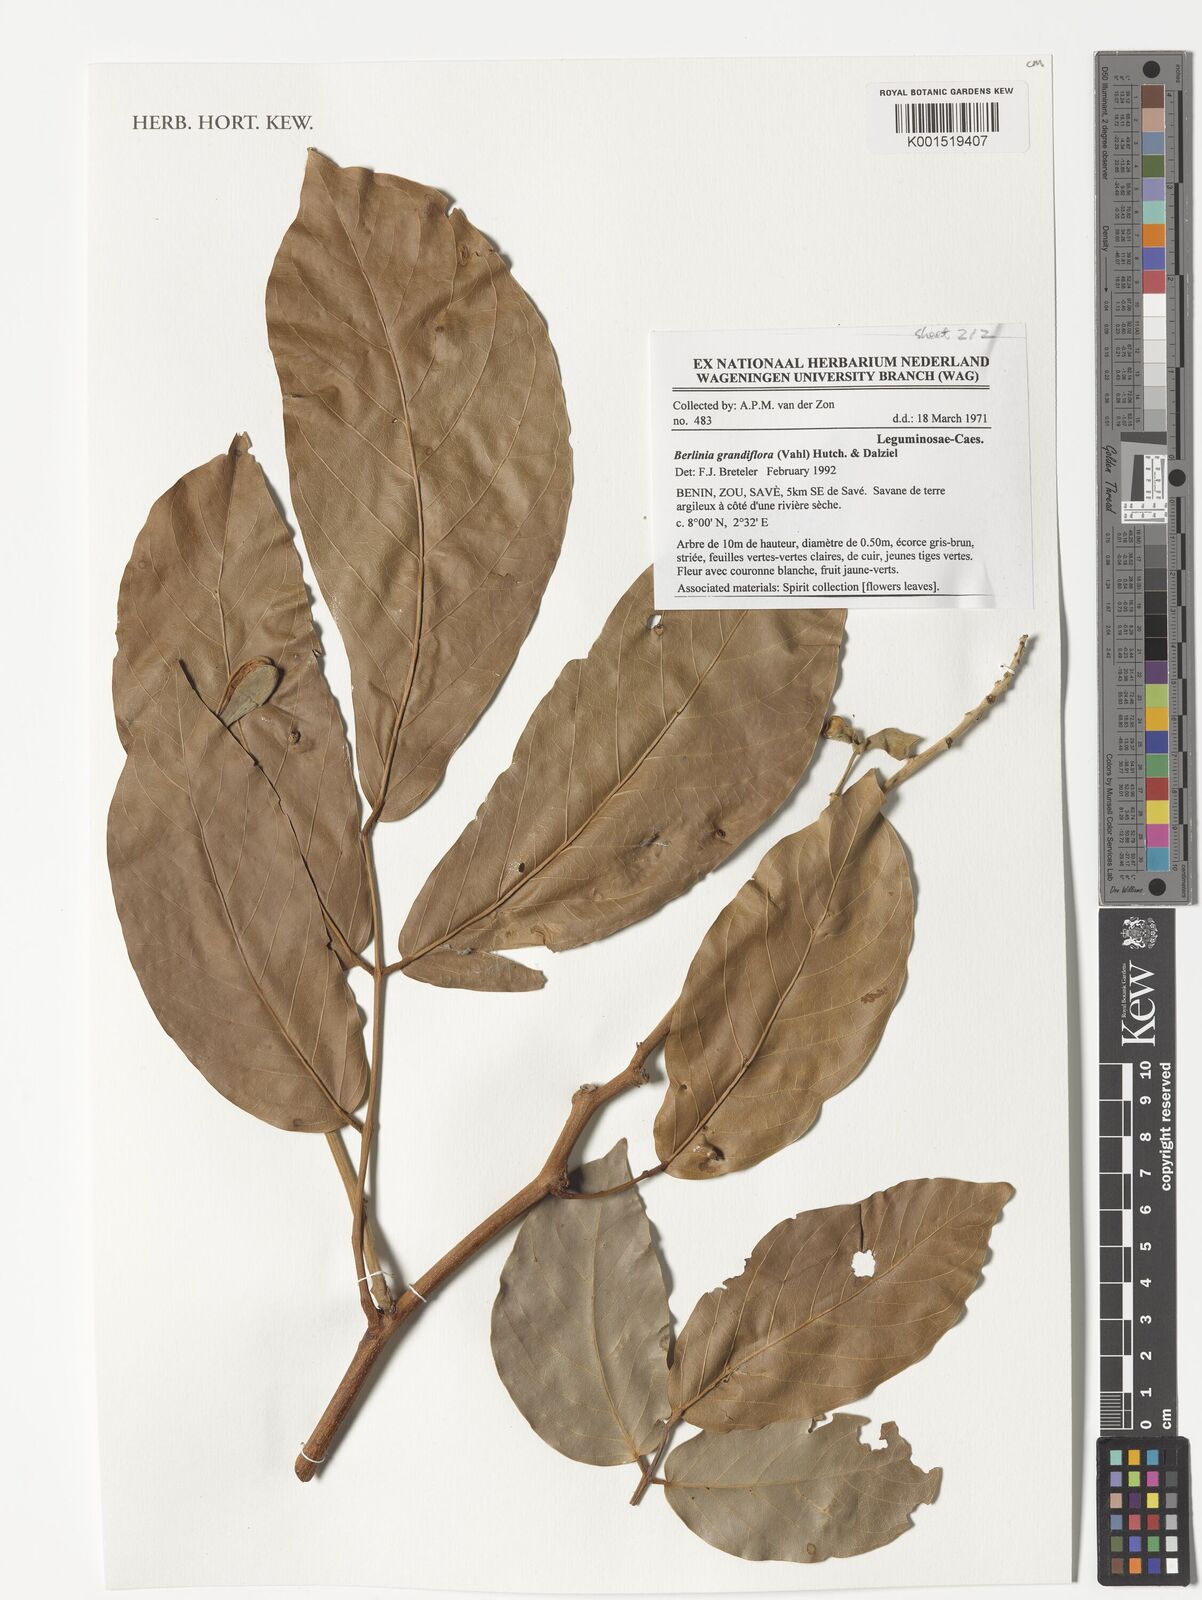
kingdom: Plantae
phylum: Tracheophyta
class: Magnoliopsida
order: Fabales
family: Fabaceae
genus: Berlinia
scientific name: Berlinia grandiflora
